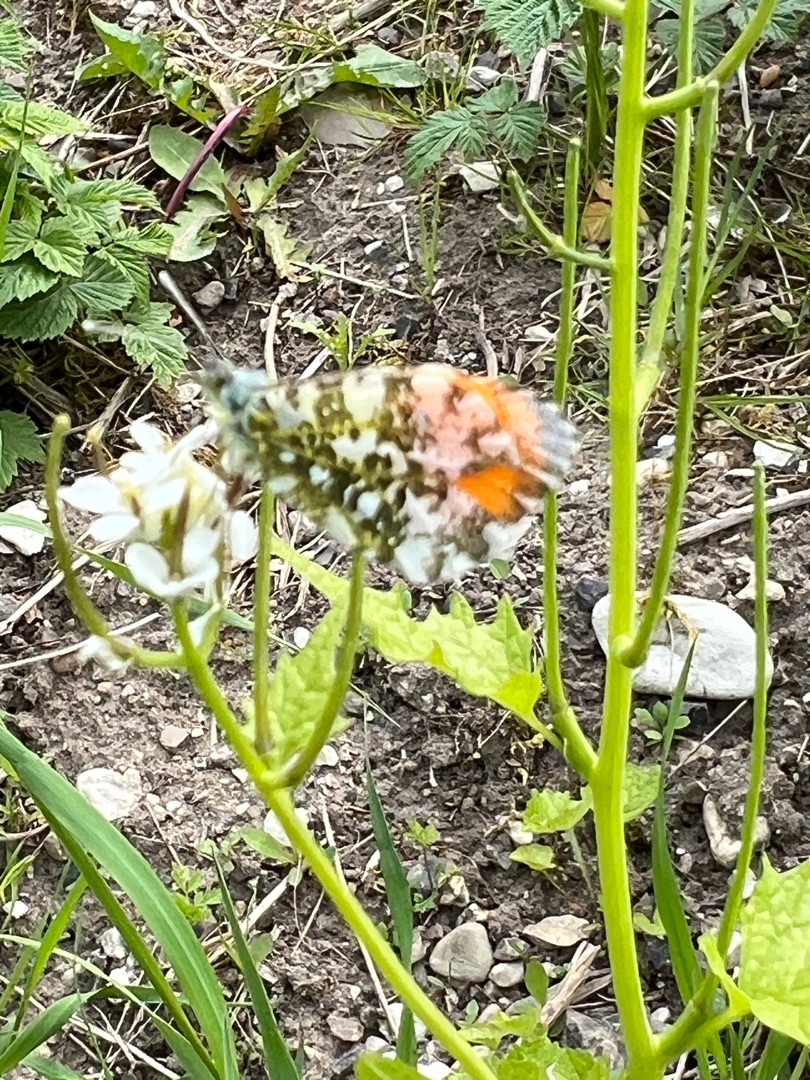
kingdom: Animalia
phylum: Arthropoda
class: Insecta
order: Lepidoptera
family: Pieridae
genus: Anthocharis
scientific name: Anthocharis cardamines
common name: Aurora
